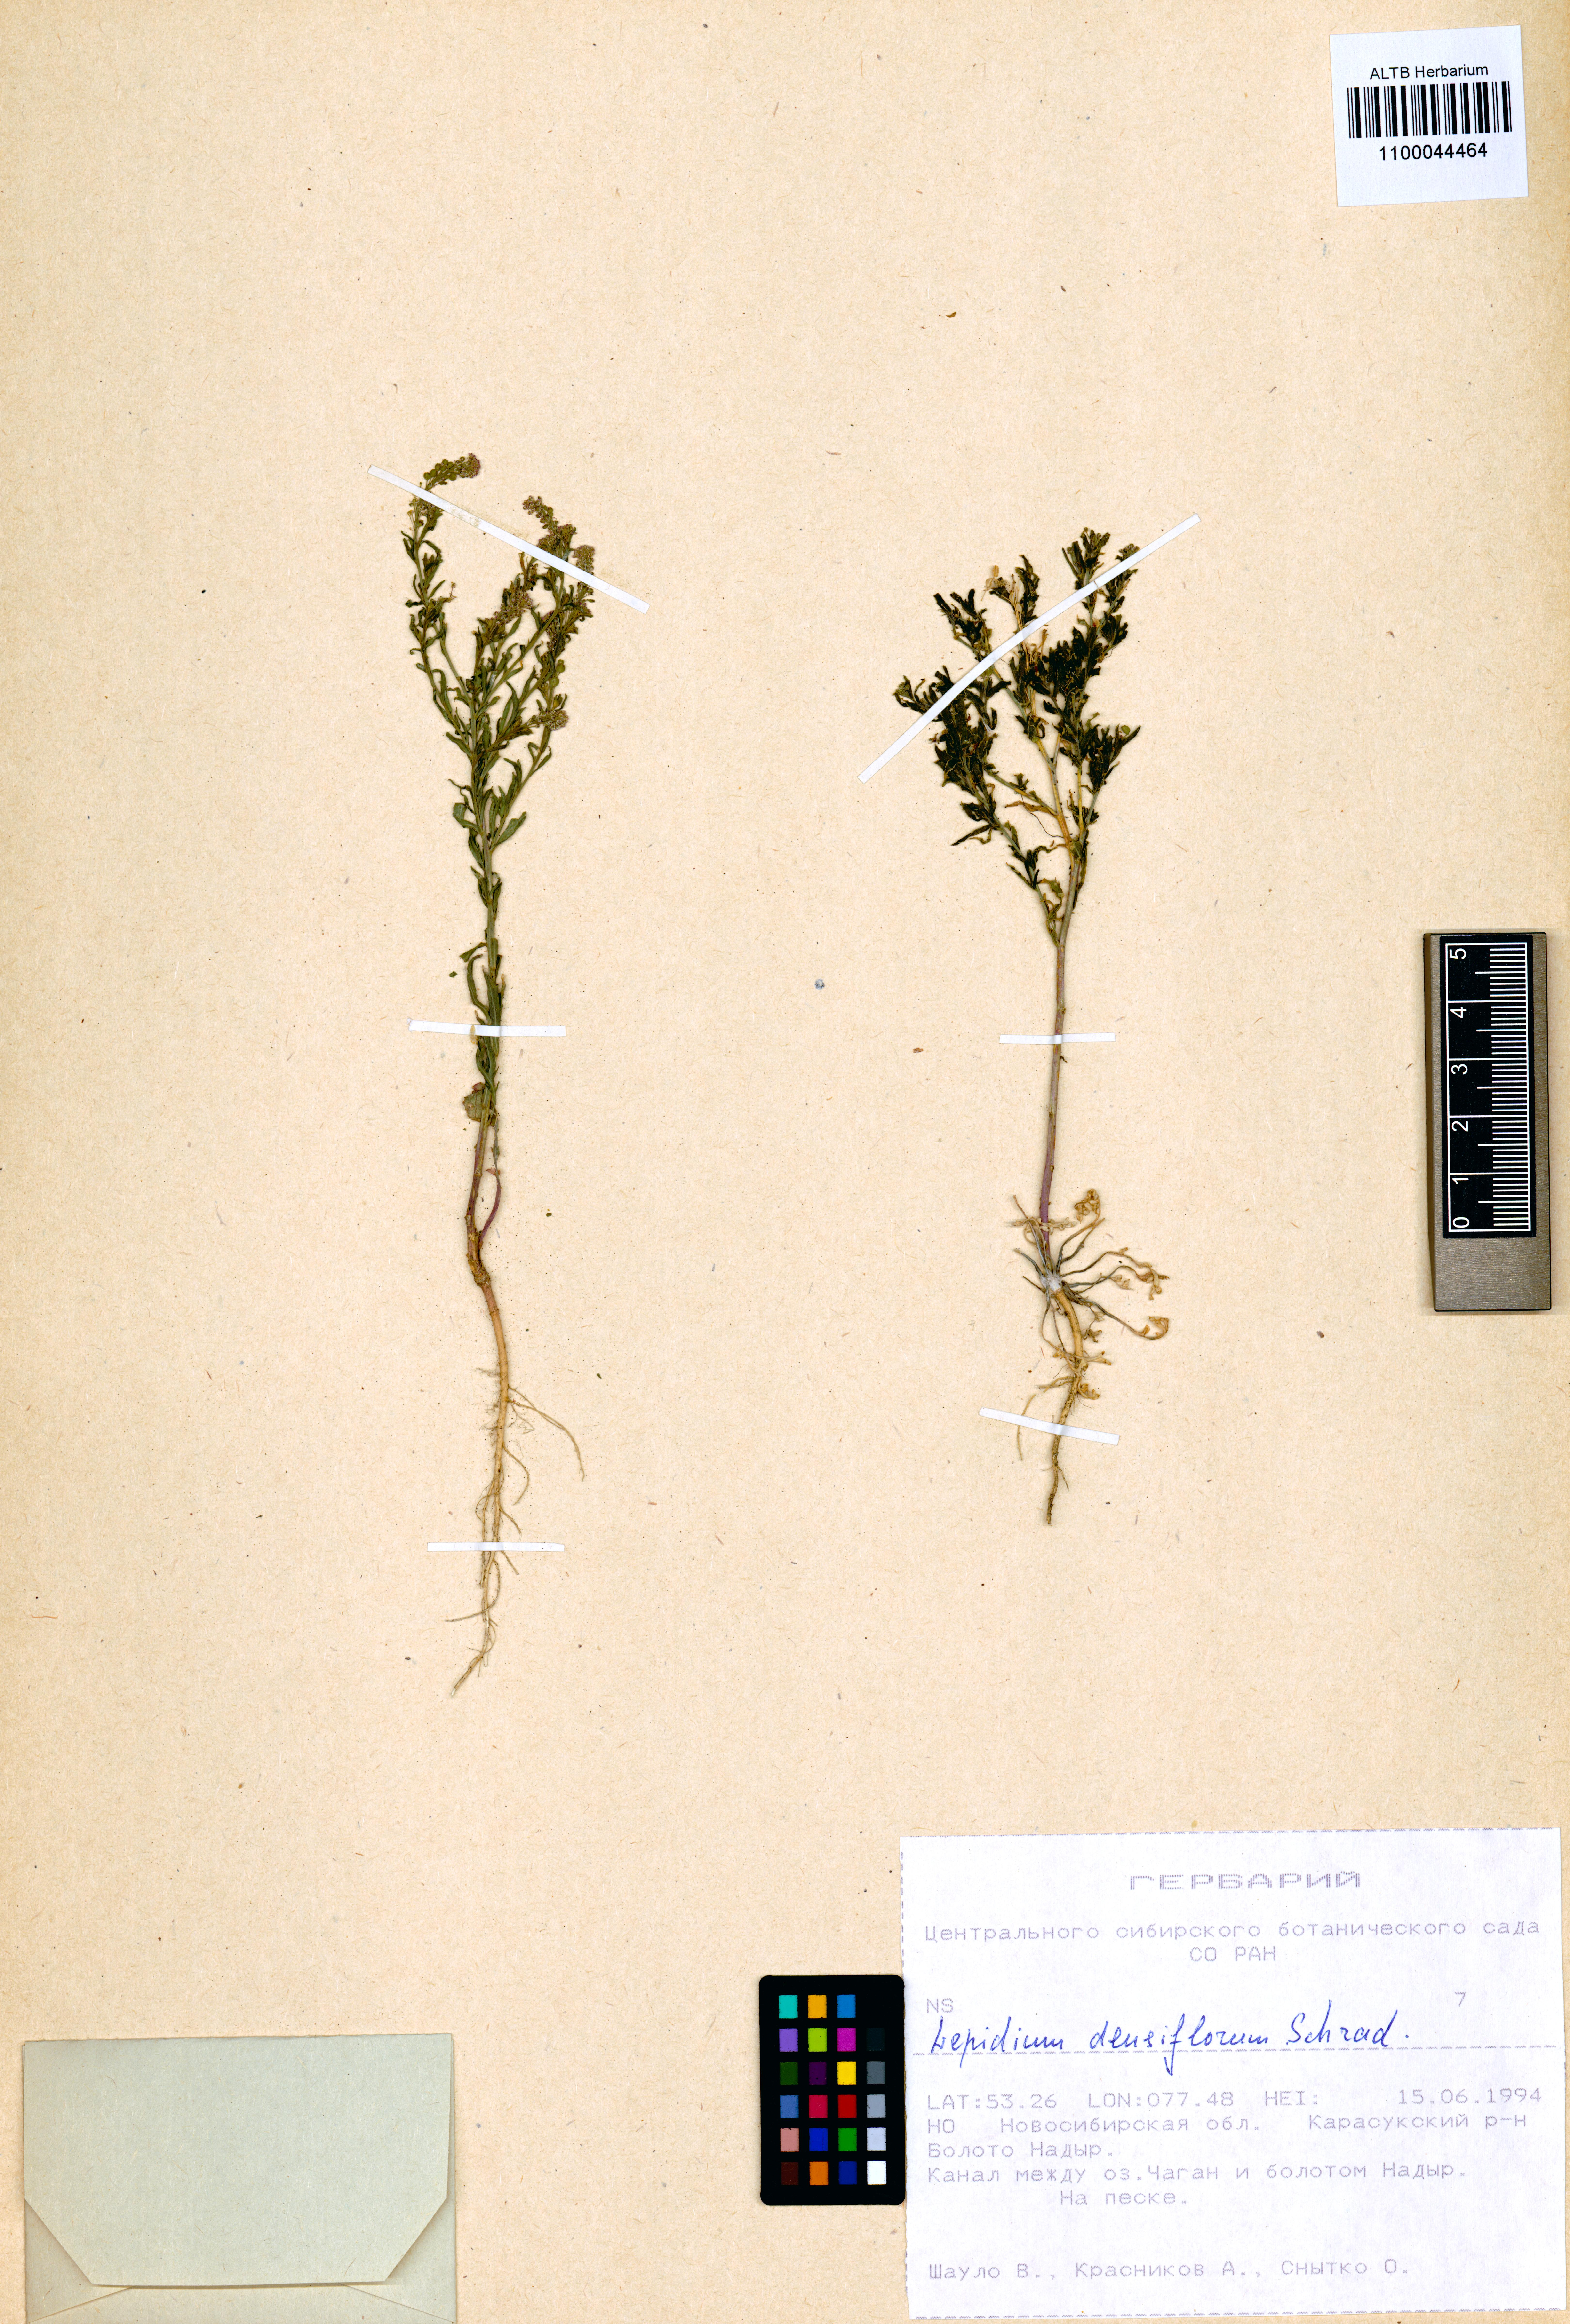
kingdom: Plantae
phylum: Tracheophyta
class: Magnoliopsida
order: Brassicales
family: Brassicaceae
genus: Lepidium
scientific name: Lepidium densiflorum
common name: Miner's pepperwort
